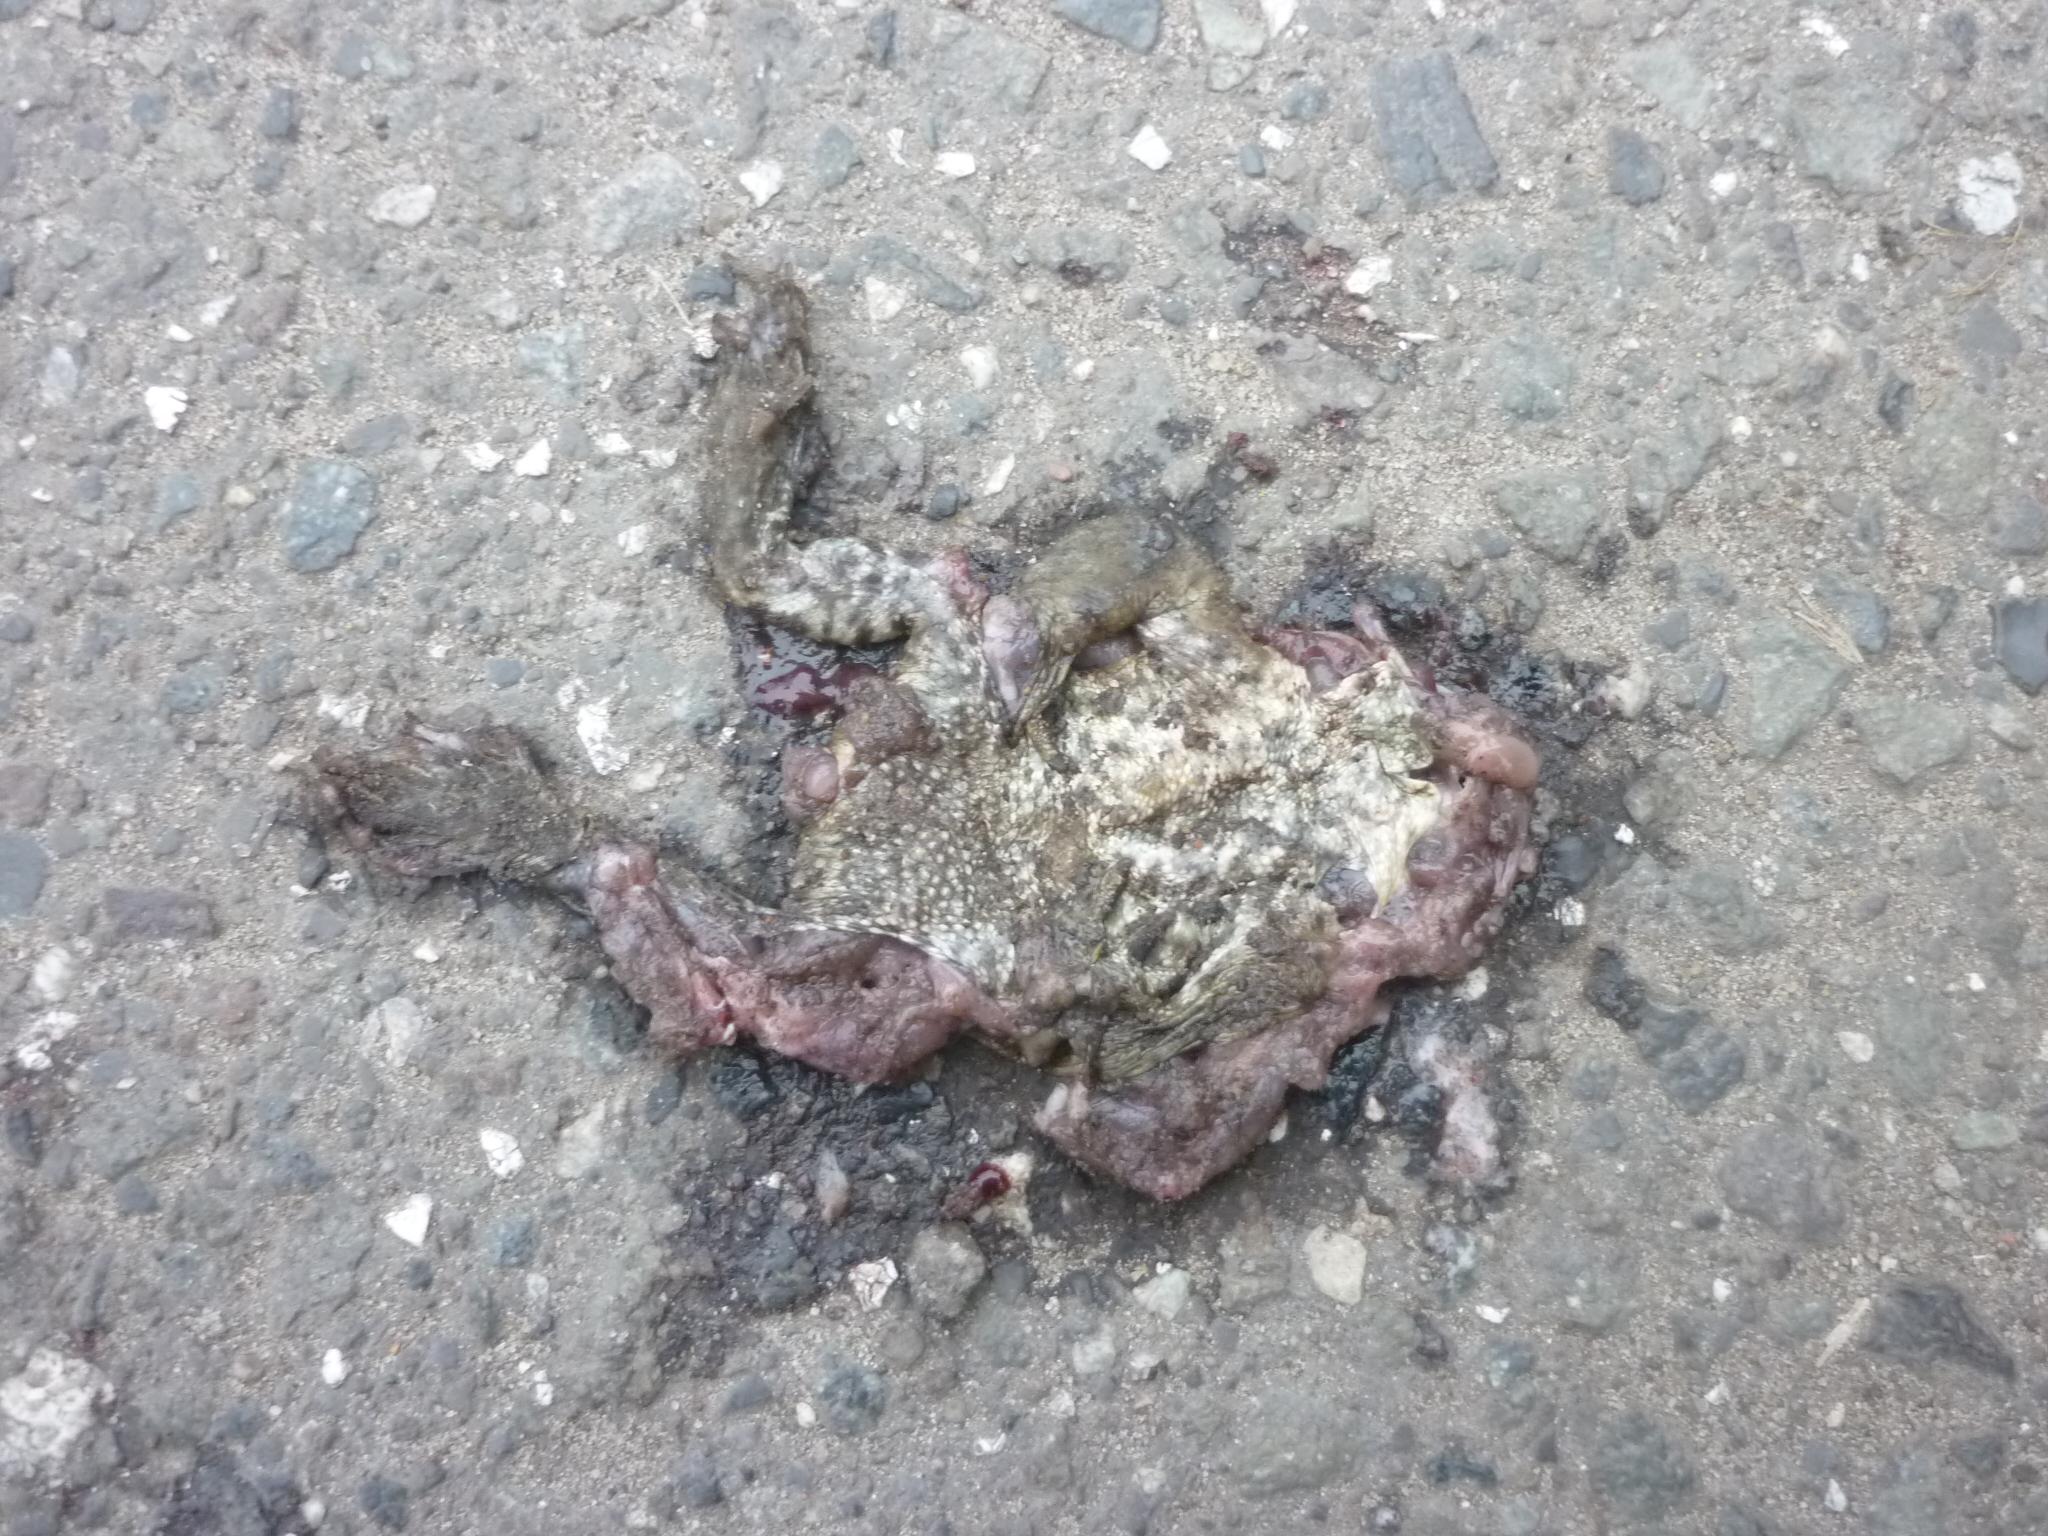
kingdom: Animalia
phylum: Chordata
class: Amphibia
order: Anura
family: Bufonidae
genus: Bufo
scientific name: Bufo bufo
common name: Common toad
